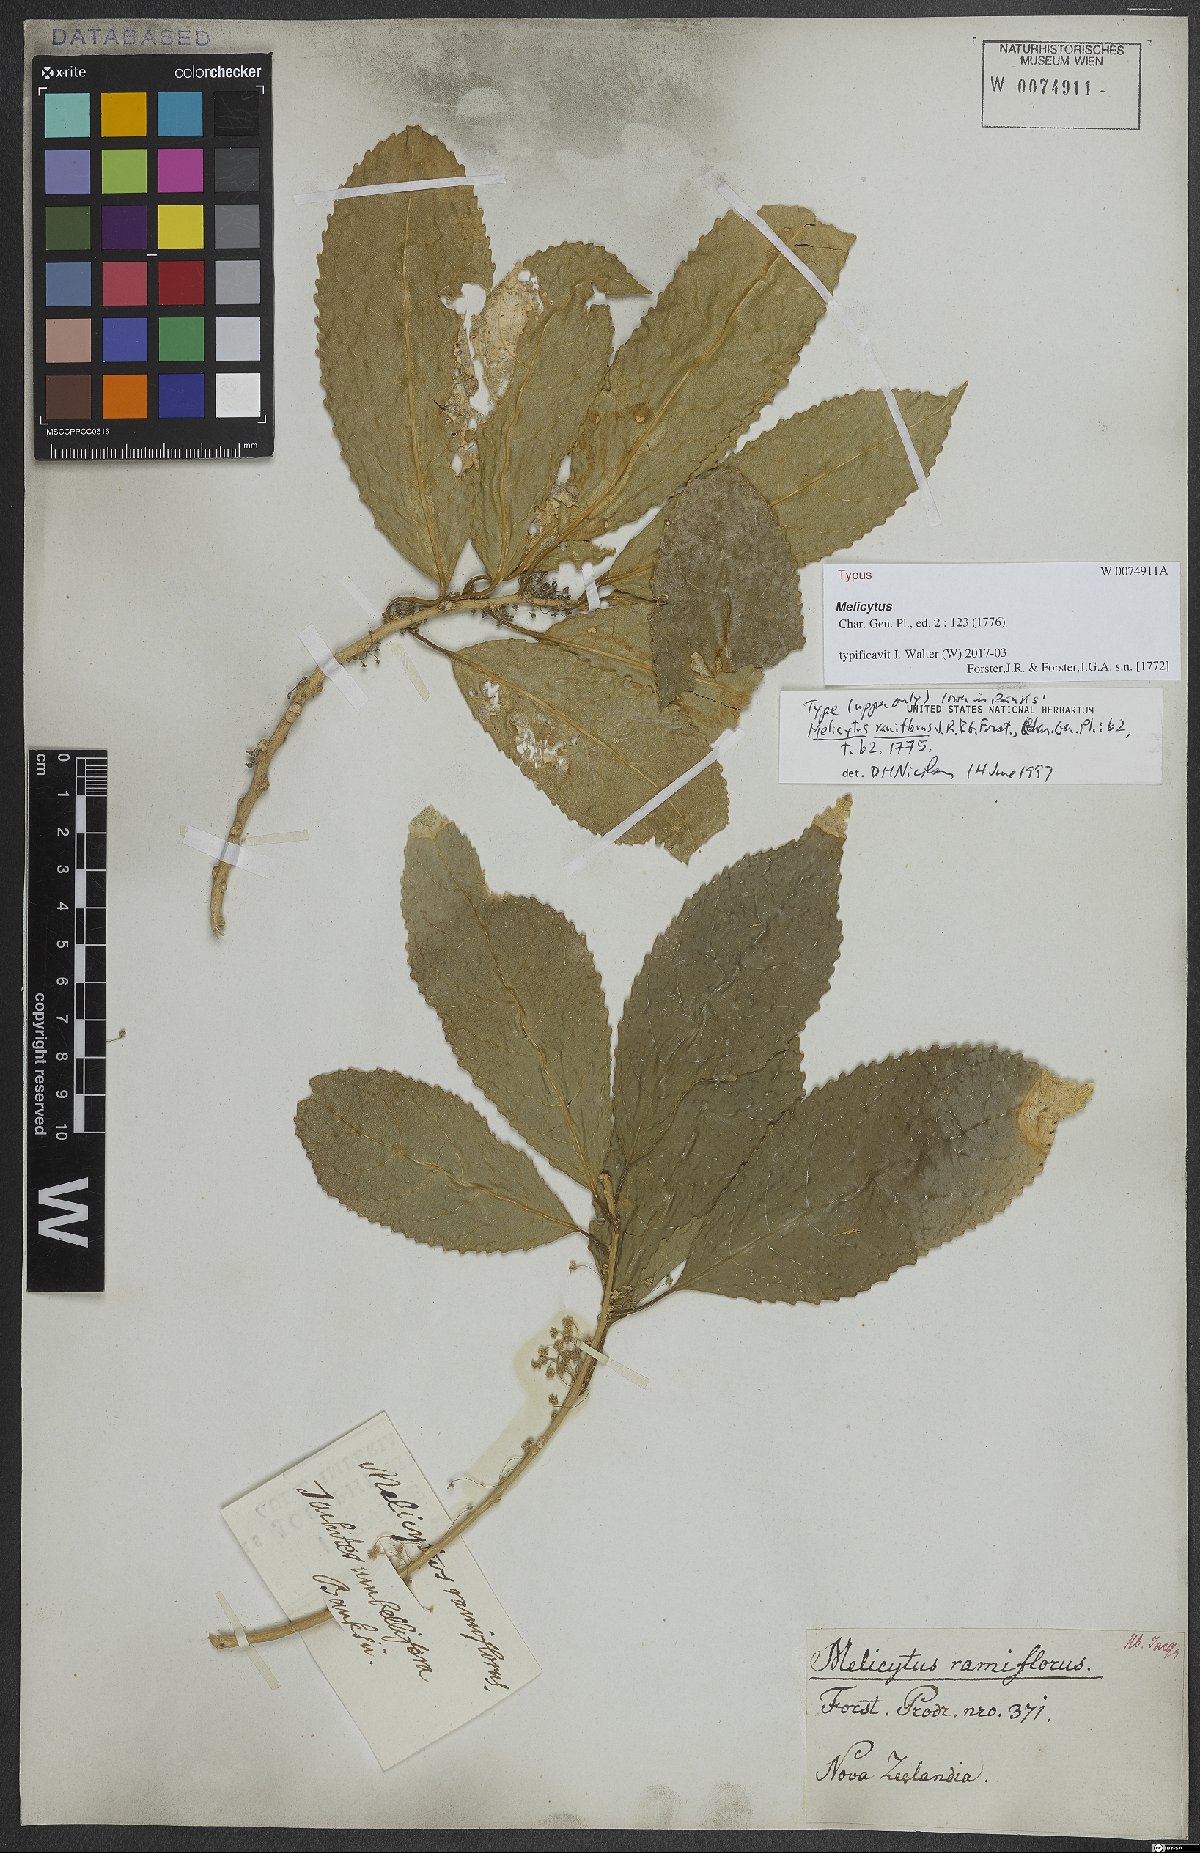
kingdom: Plantae
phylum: Tracheophyta
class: Magnoliopsida
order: Malpighiales
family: Violaceae
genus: Melicytus
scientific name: Melicytus ramiflorus
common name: Mahoe
